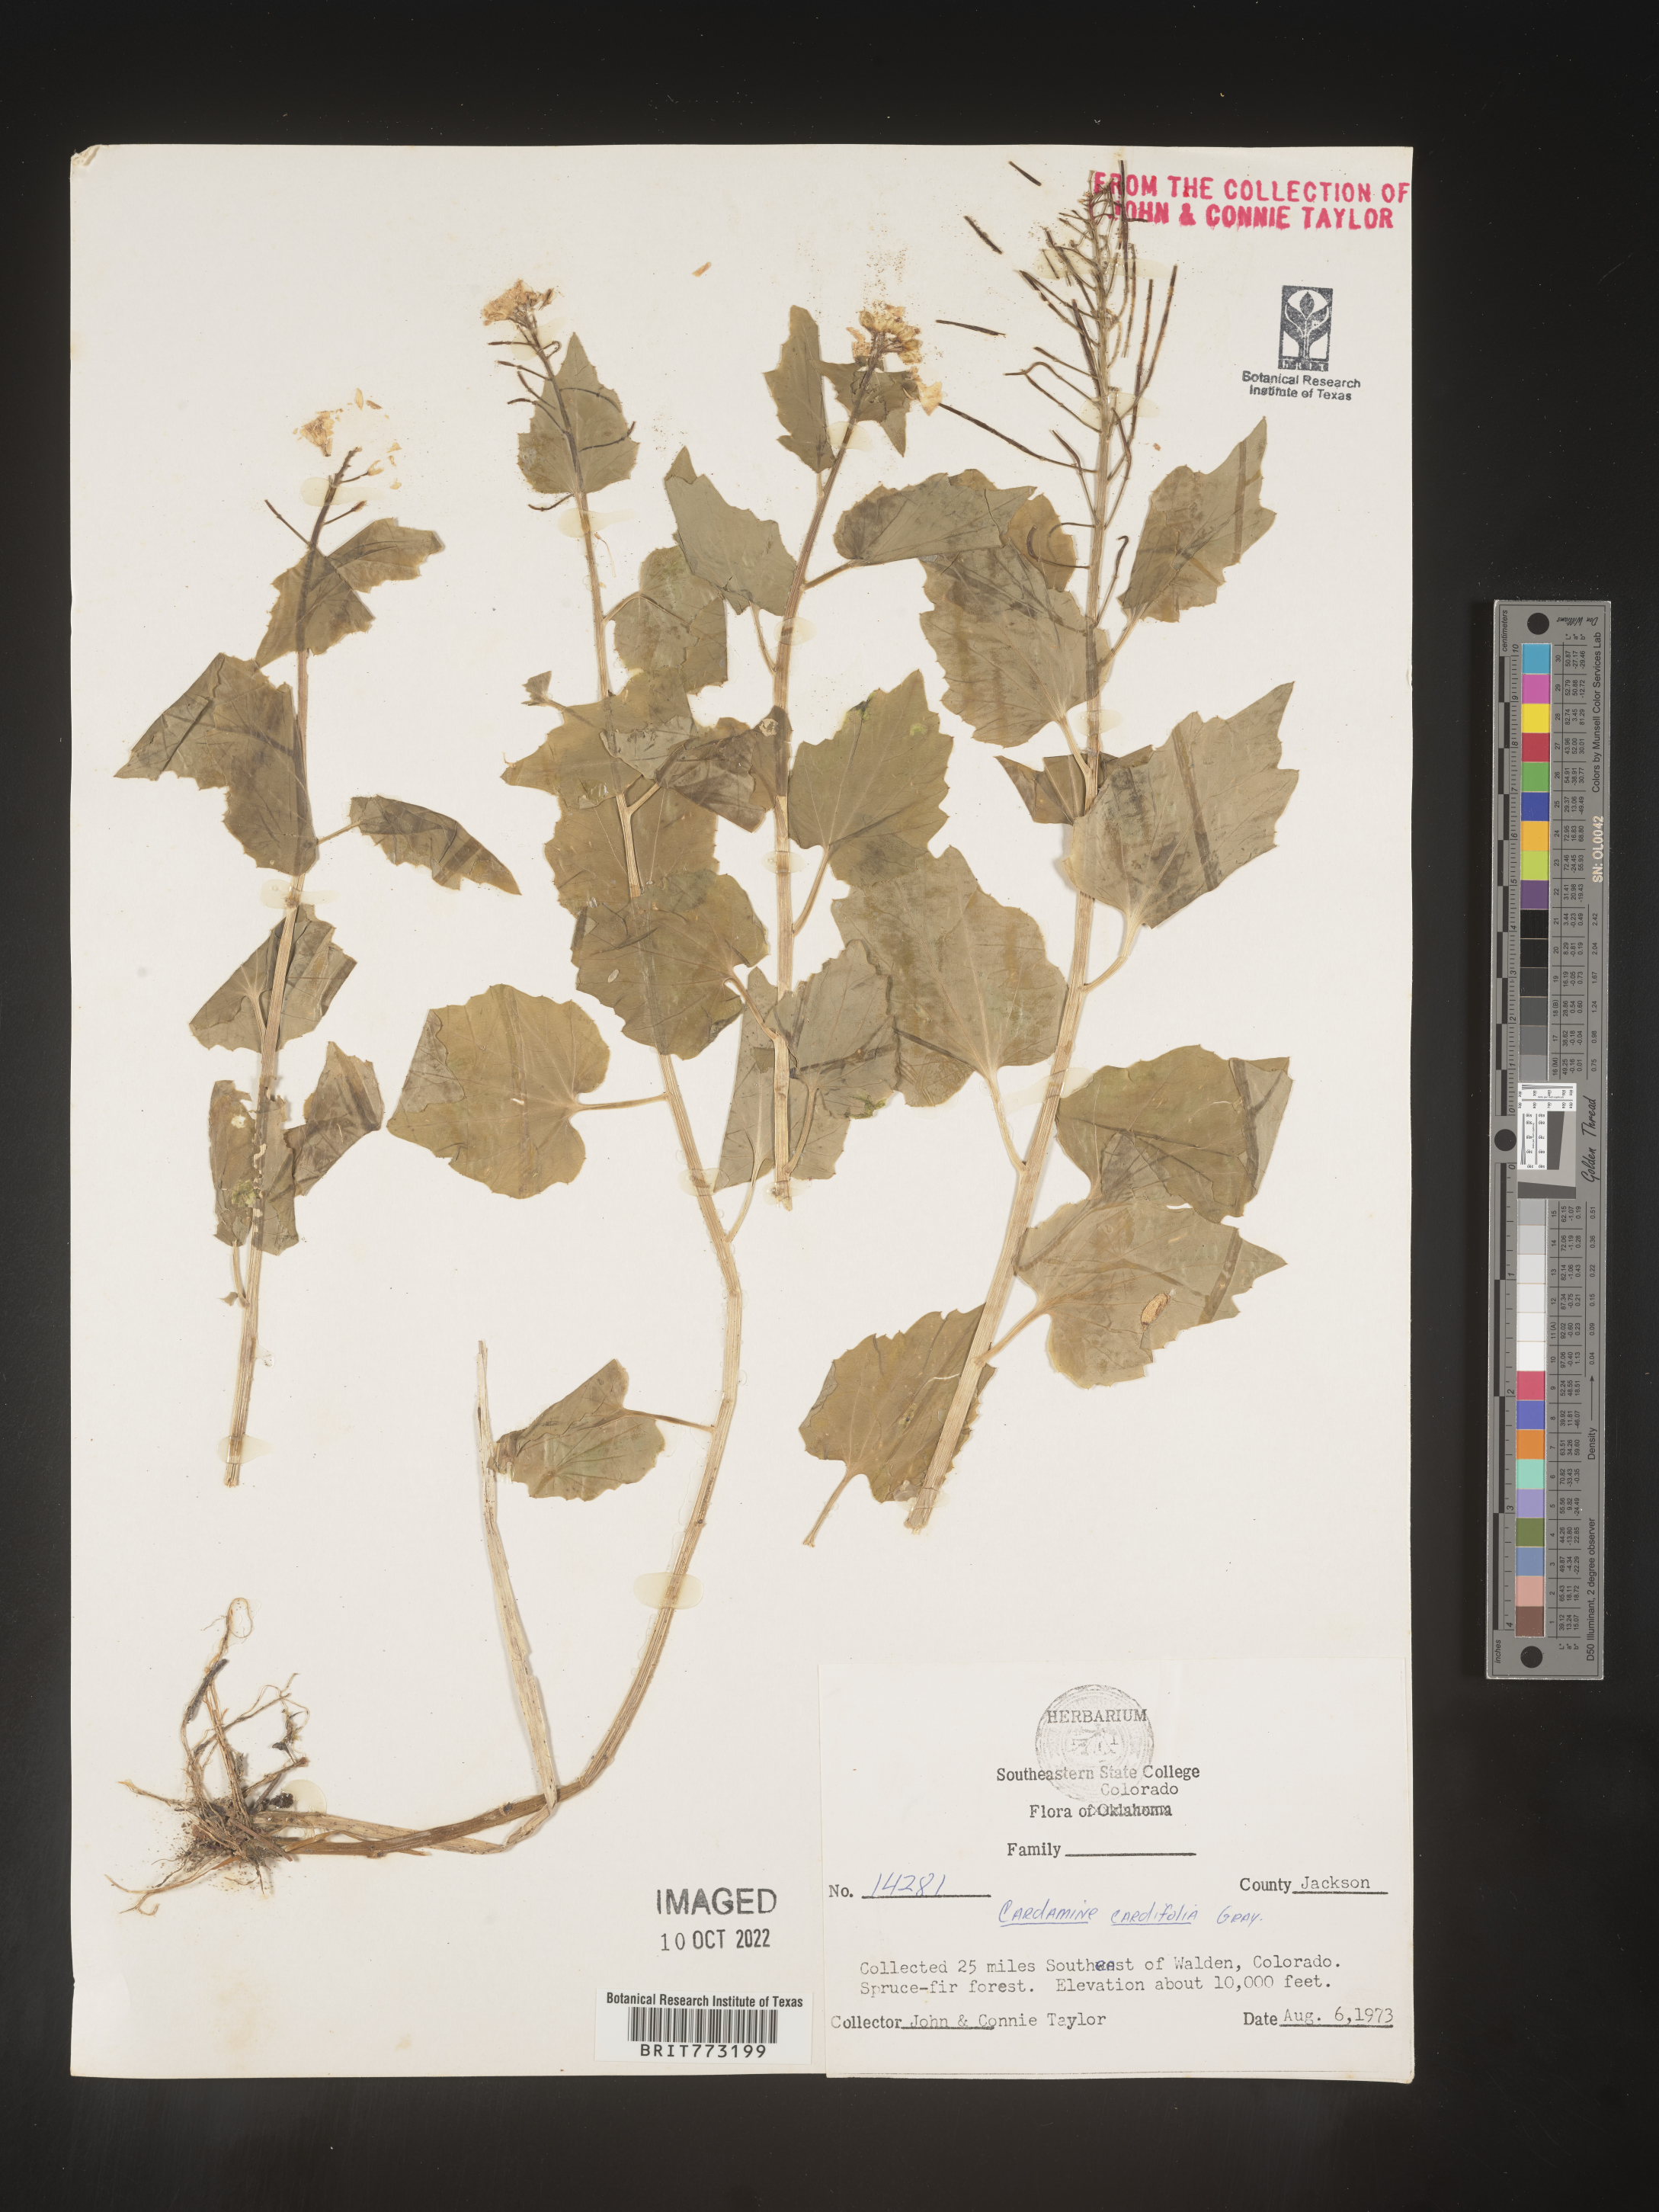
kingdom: Plantae
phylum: Tracheophyta
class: Magnoliopsida
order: Brassicales
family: Brassicaceae
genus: Cardamine
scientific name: Cardamine
